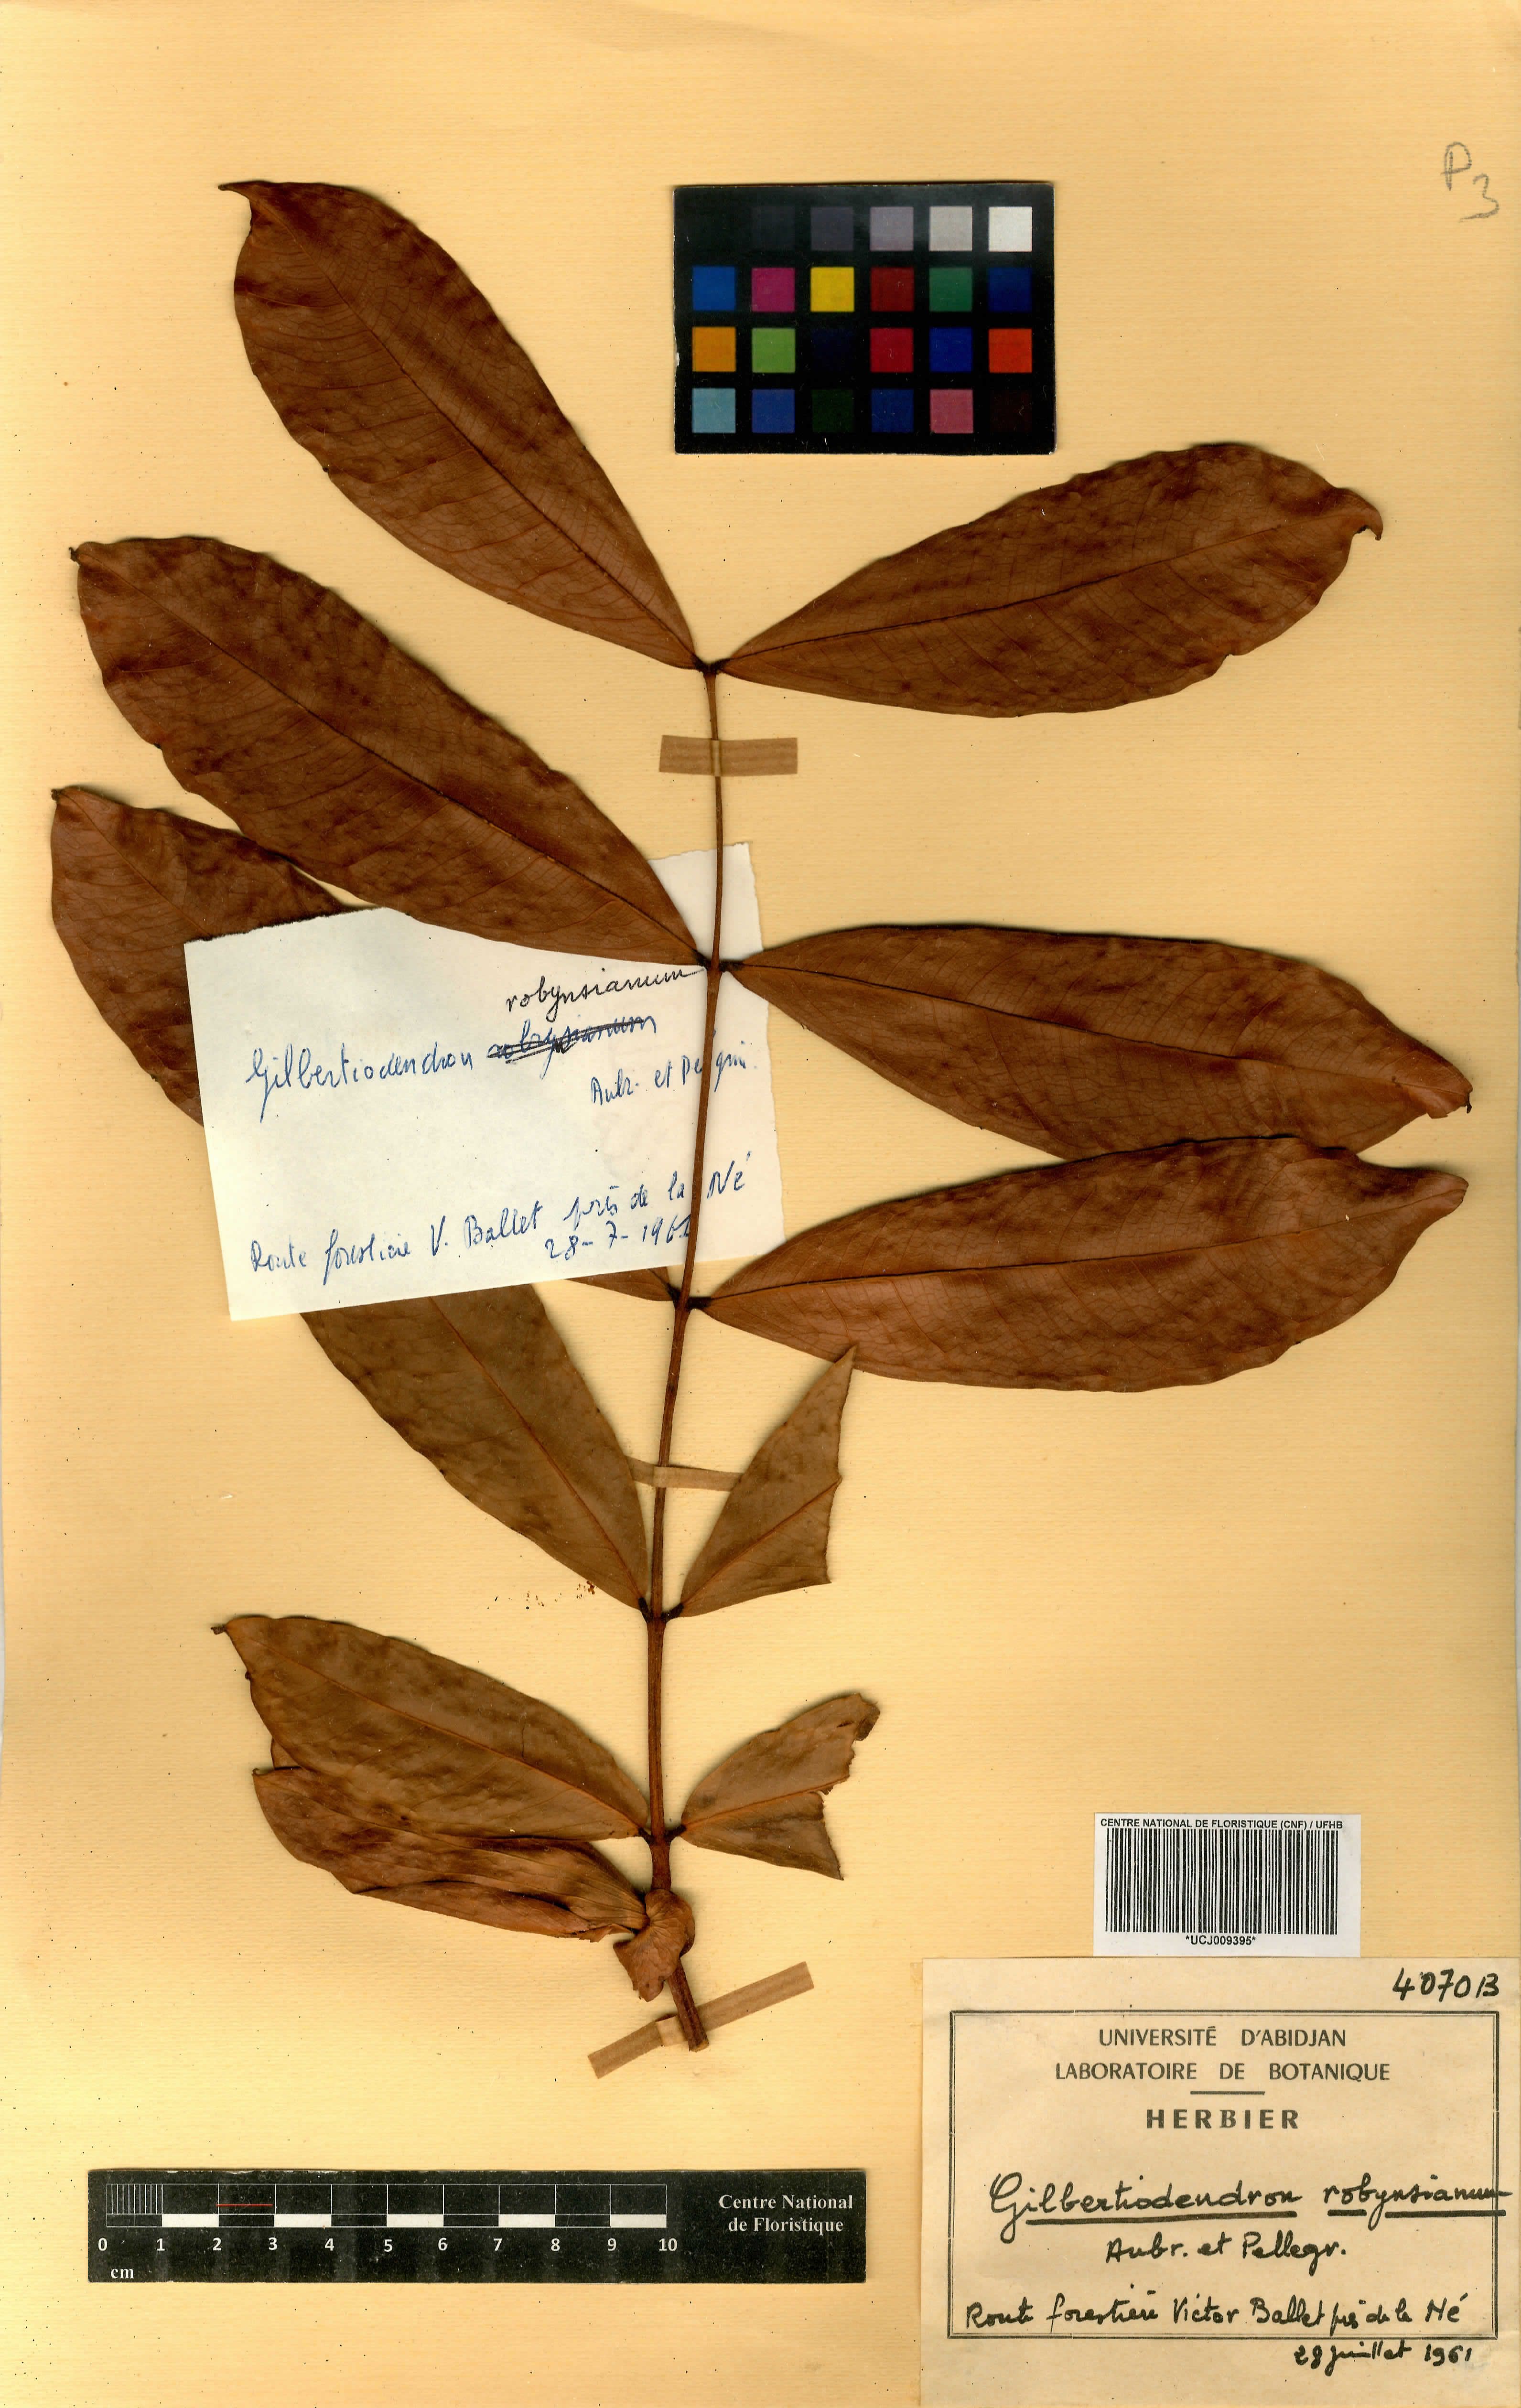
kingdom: Plantae
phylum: Tracheophyta
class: Magnoliopsida
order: Fabales
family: Fabaceae
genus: Gilbertiodendron
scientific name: Gilbertiodendron robynsianum
